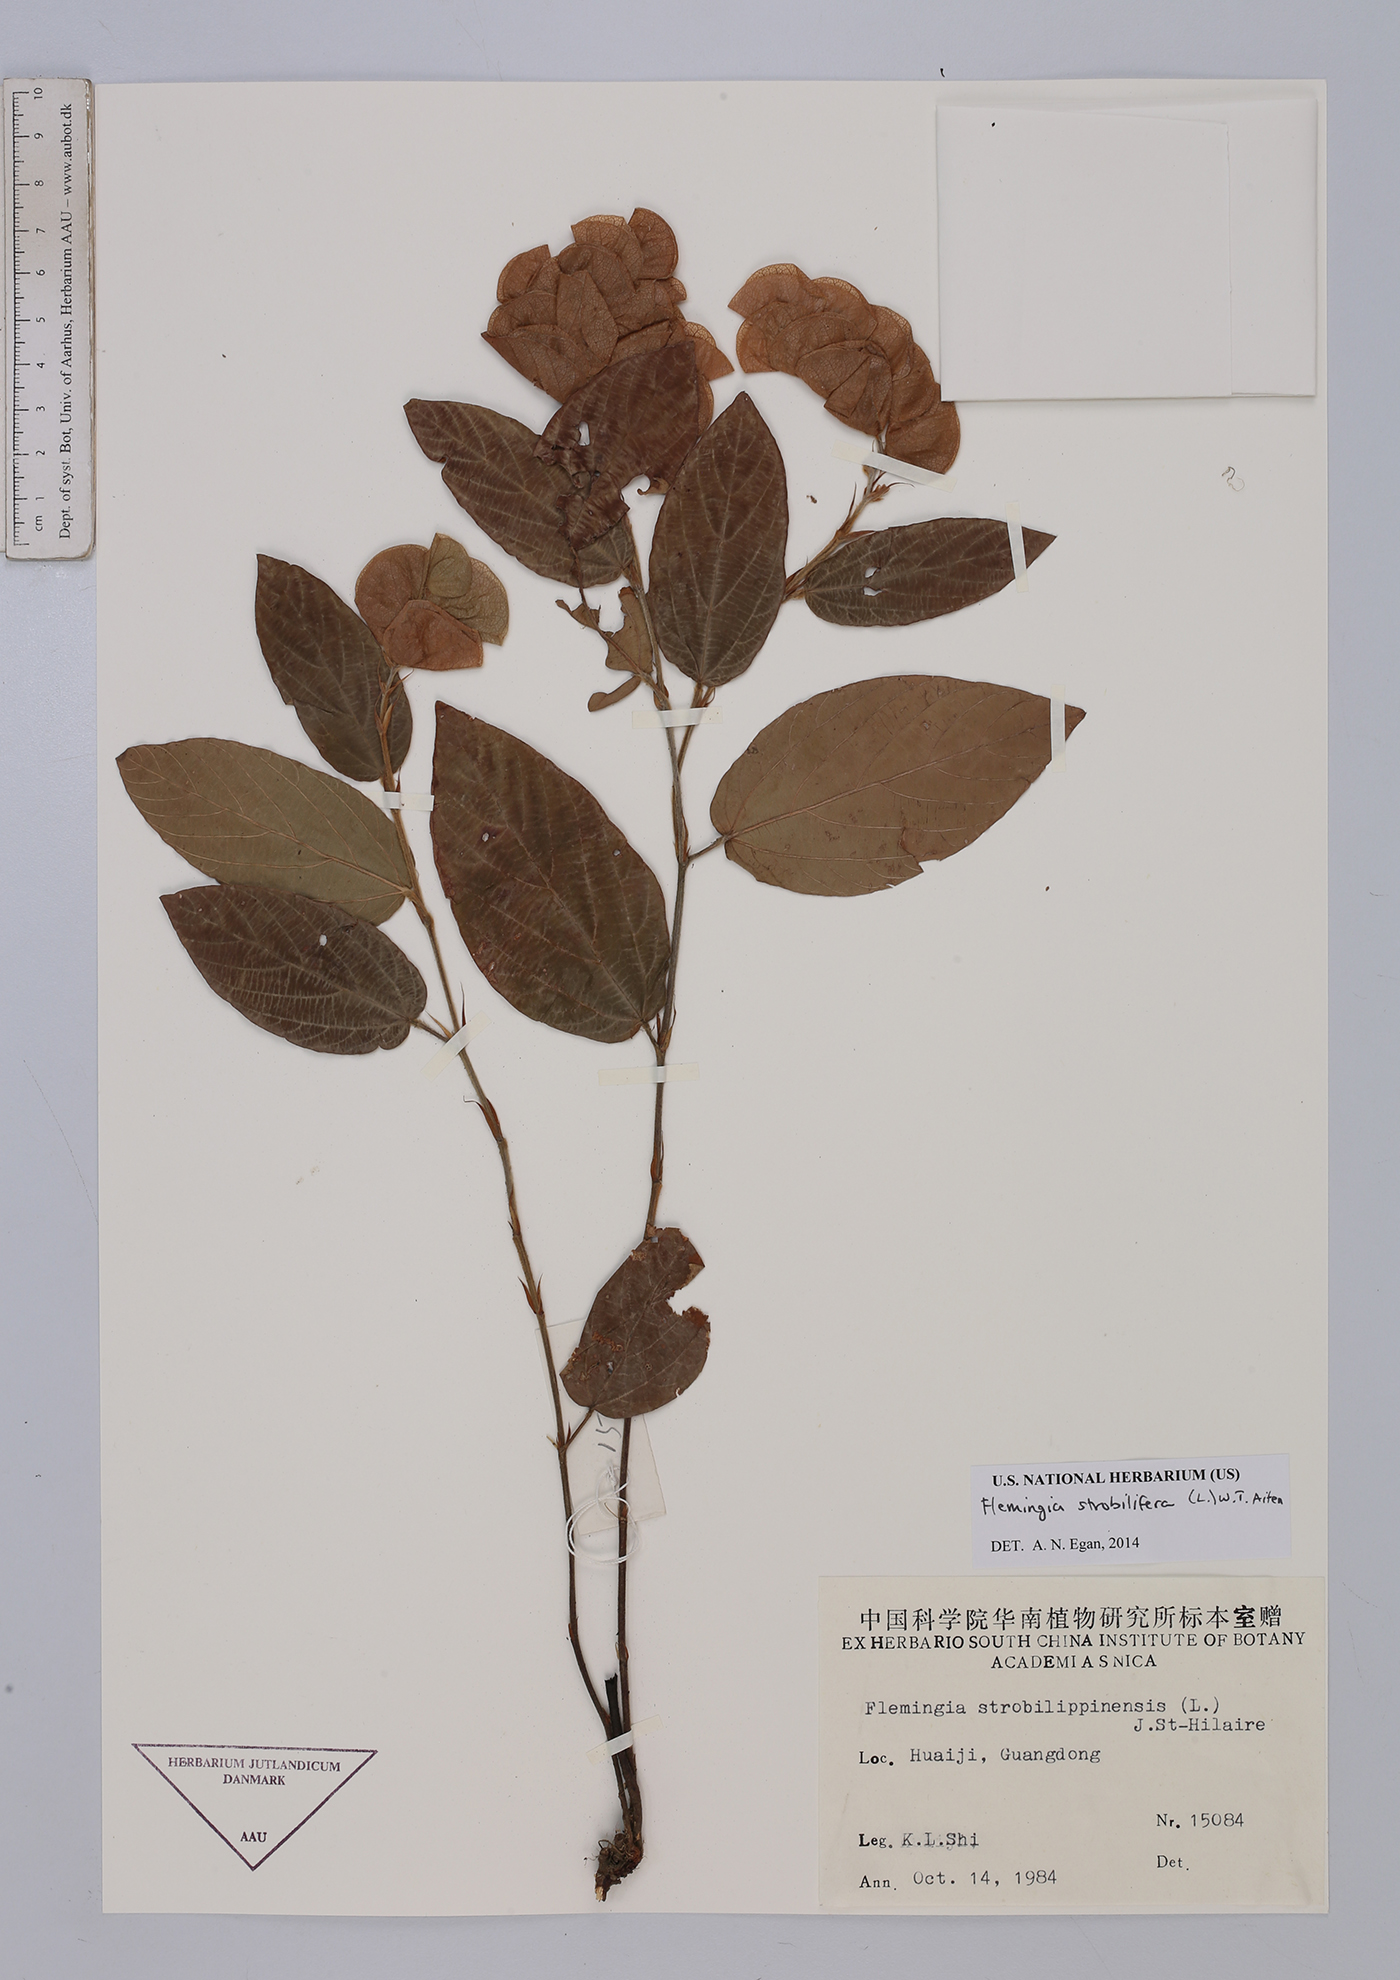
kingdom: Plantae
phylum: Tracheophyta
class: Magnoliopsida
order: Fabales
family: Fabaceae
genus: Flemingia
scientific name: Flemingia strobilifera
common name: Wild hops
